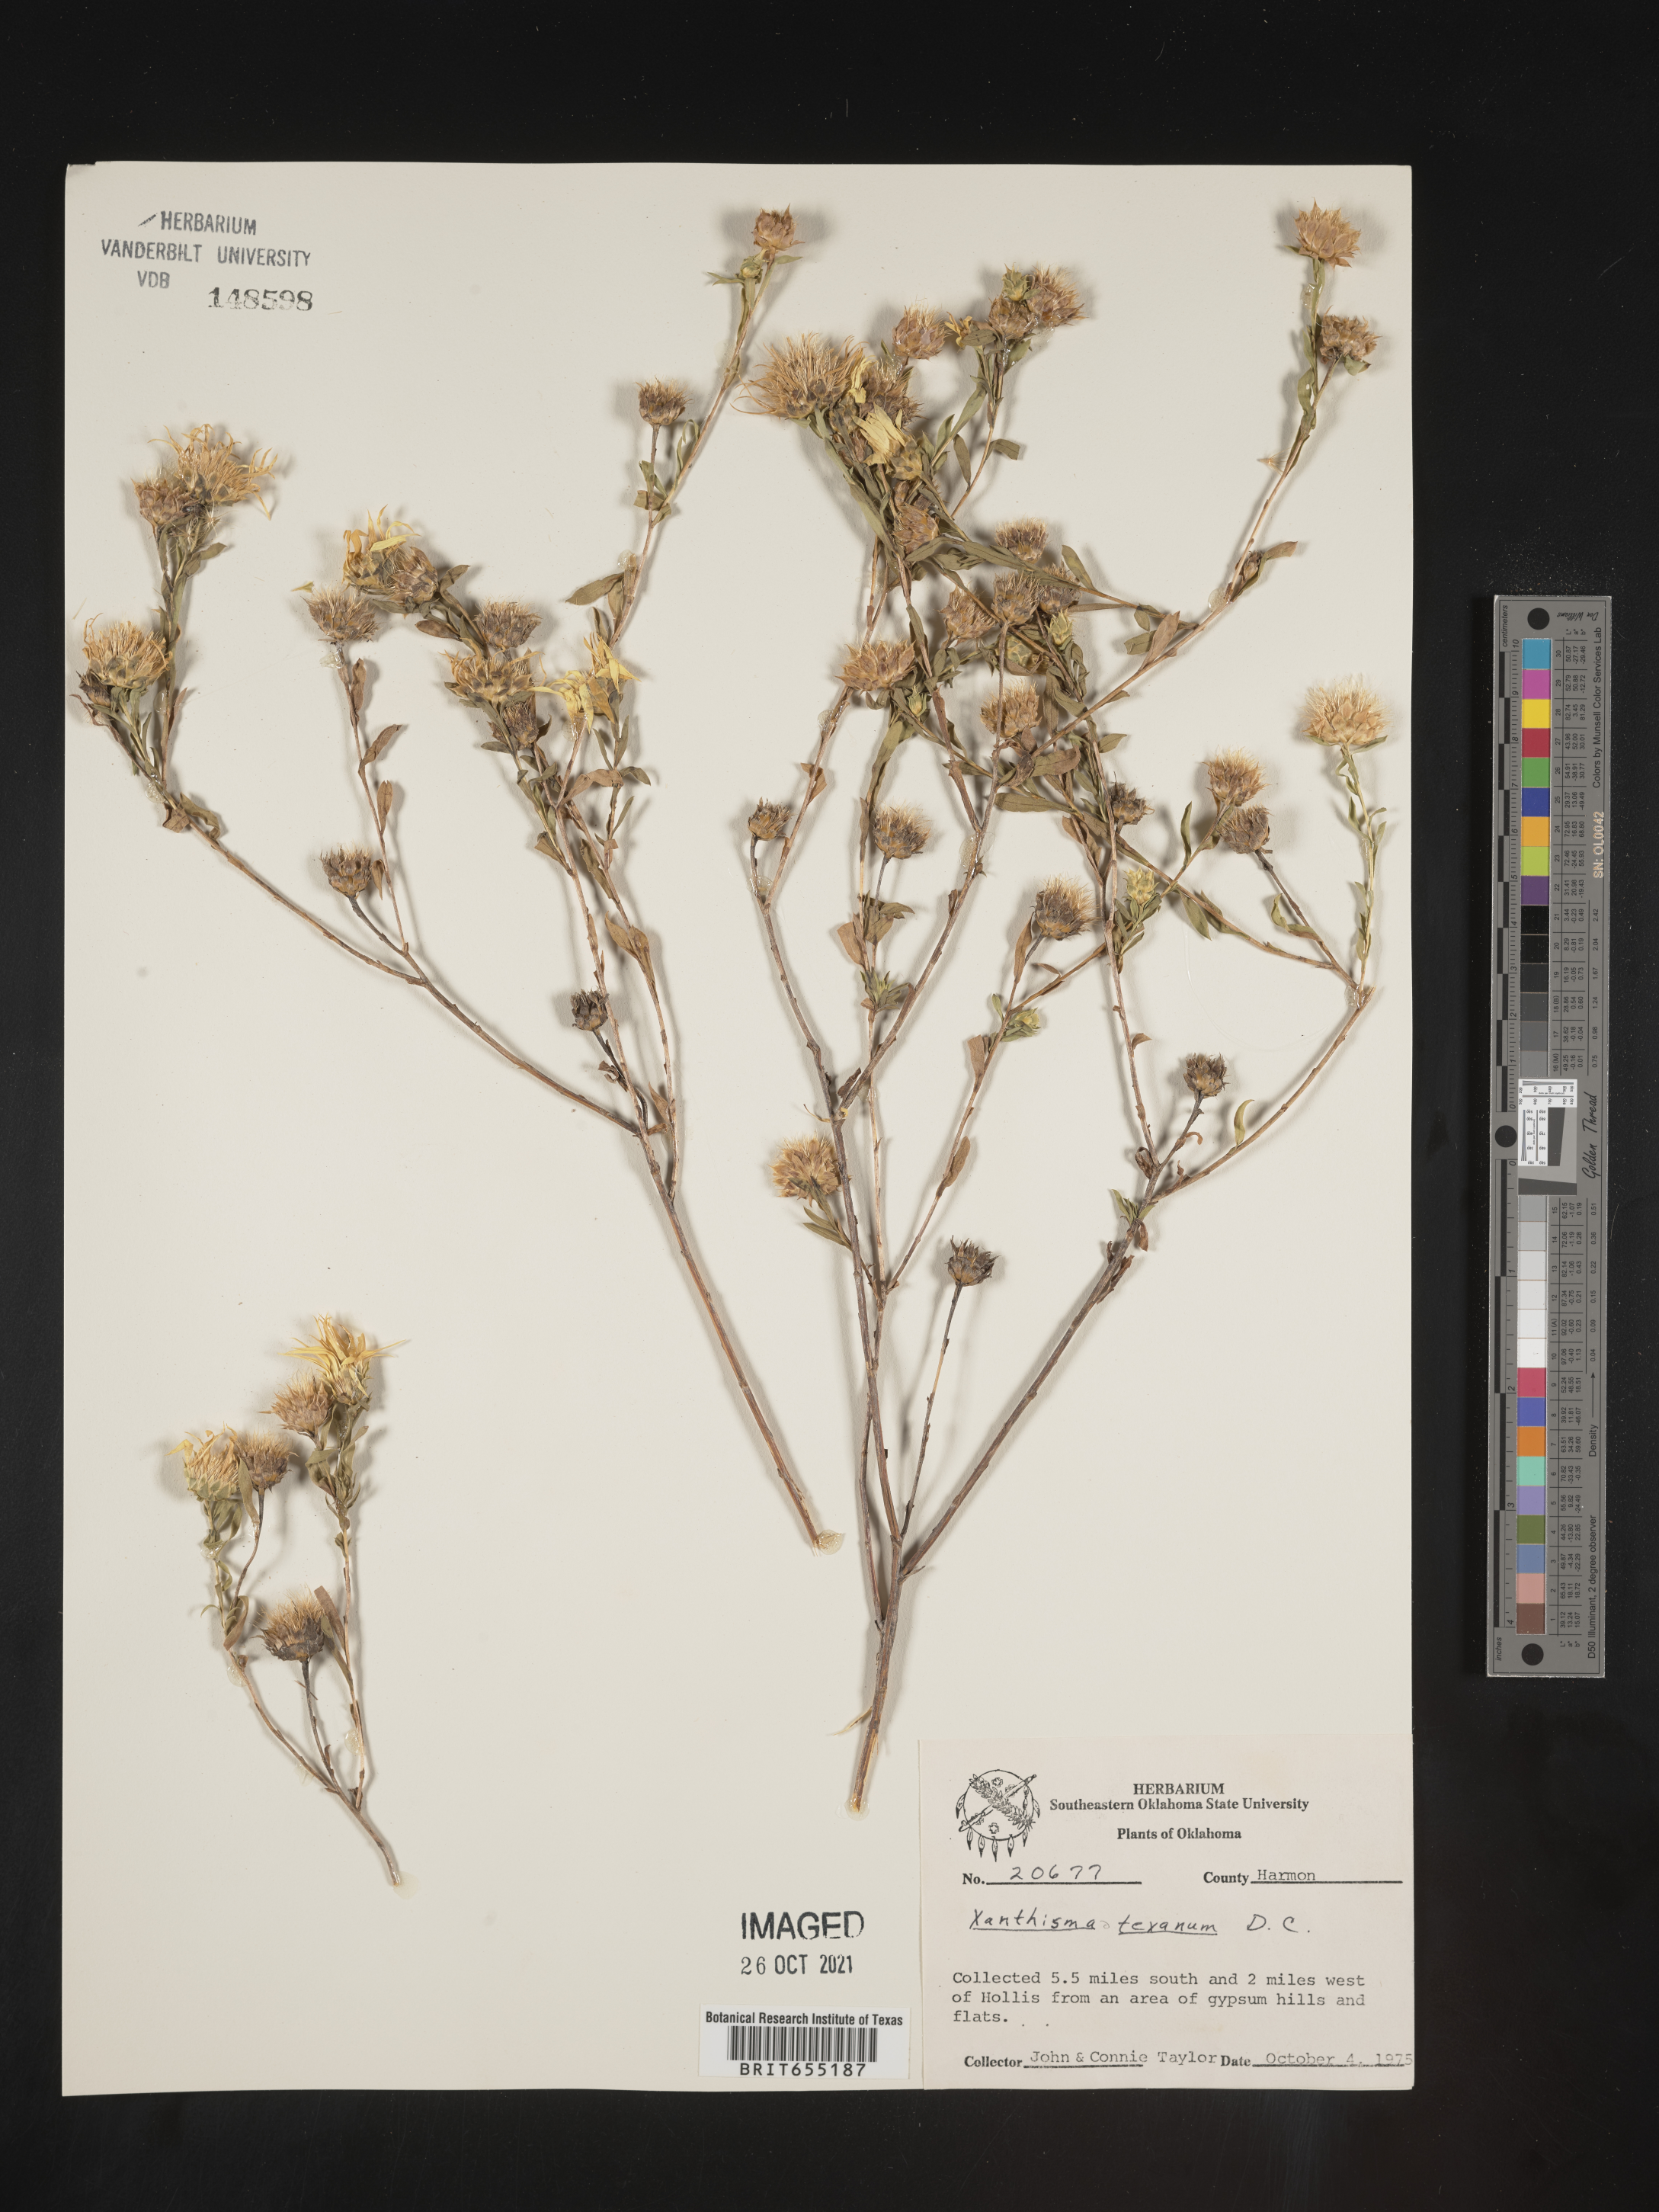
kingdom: Plantae
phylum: Tracheophyta
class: Magnoliopsida
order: Asterales
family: Asteraceae
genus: Xanthisma
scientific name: Xanthisma texanum
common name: Texas sleepy daisy
